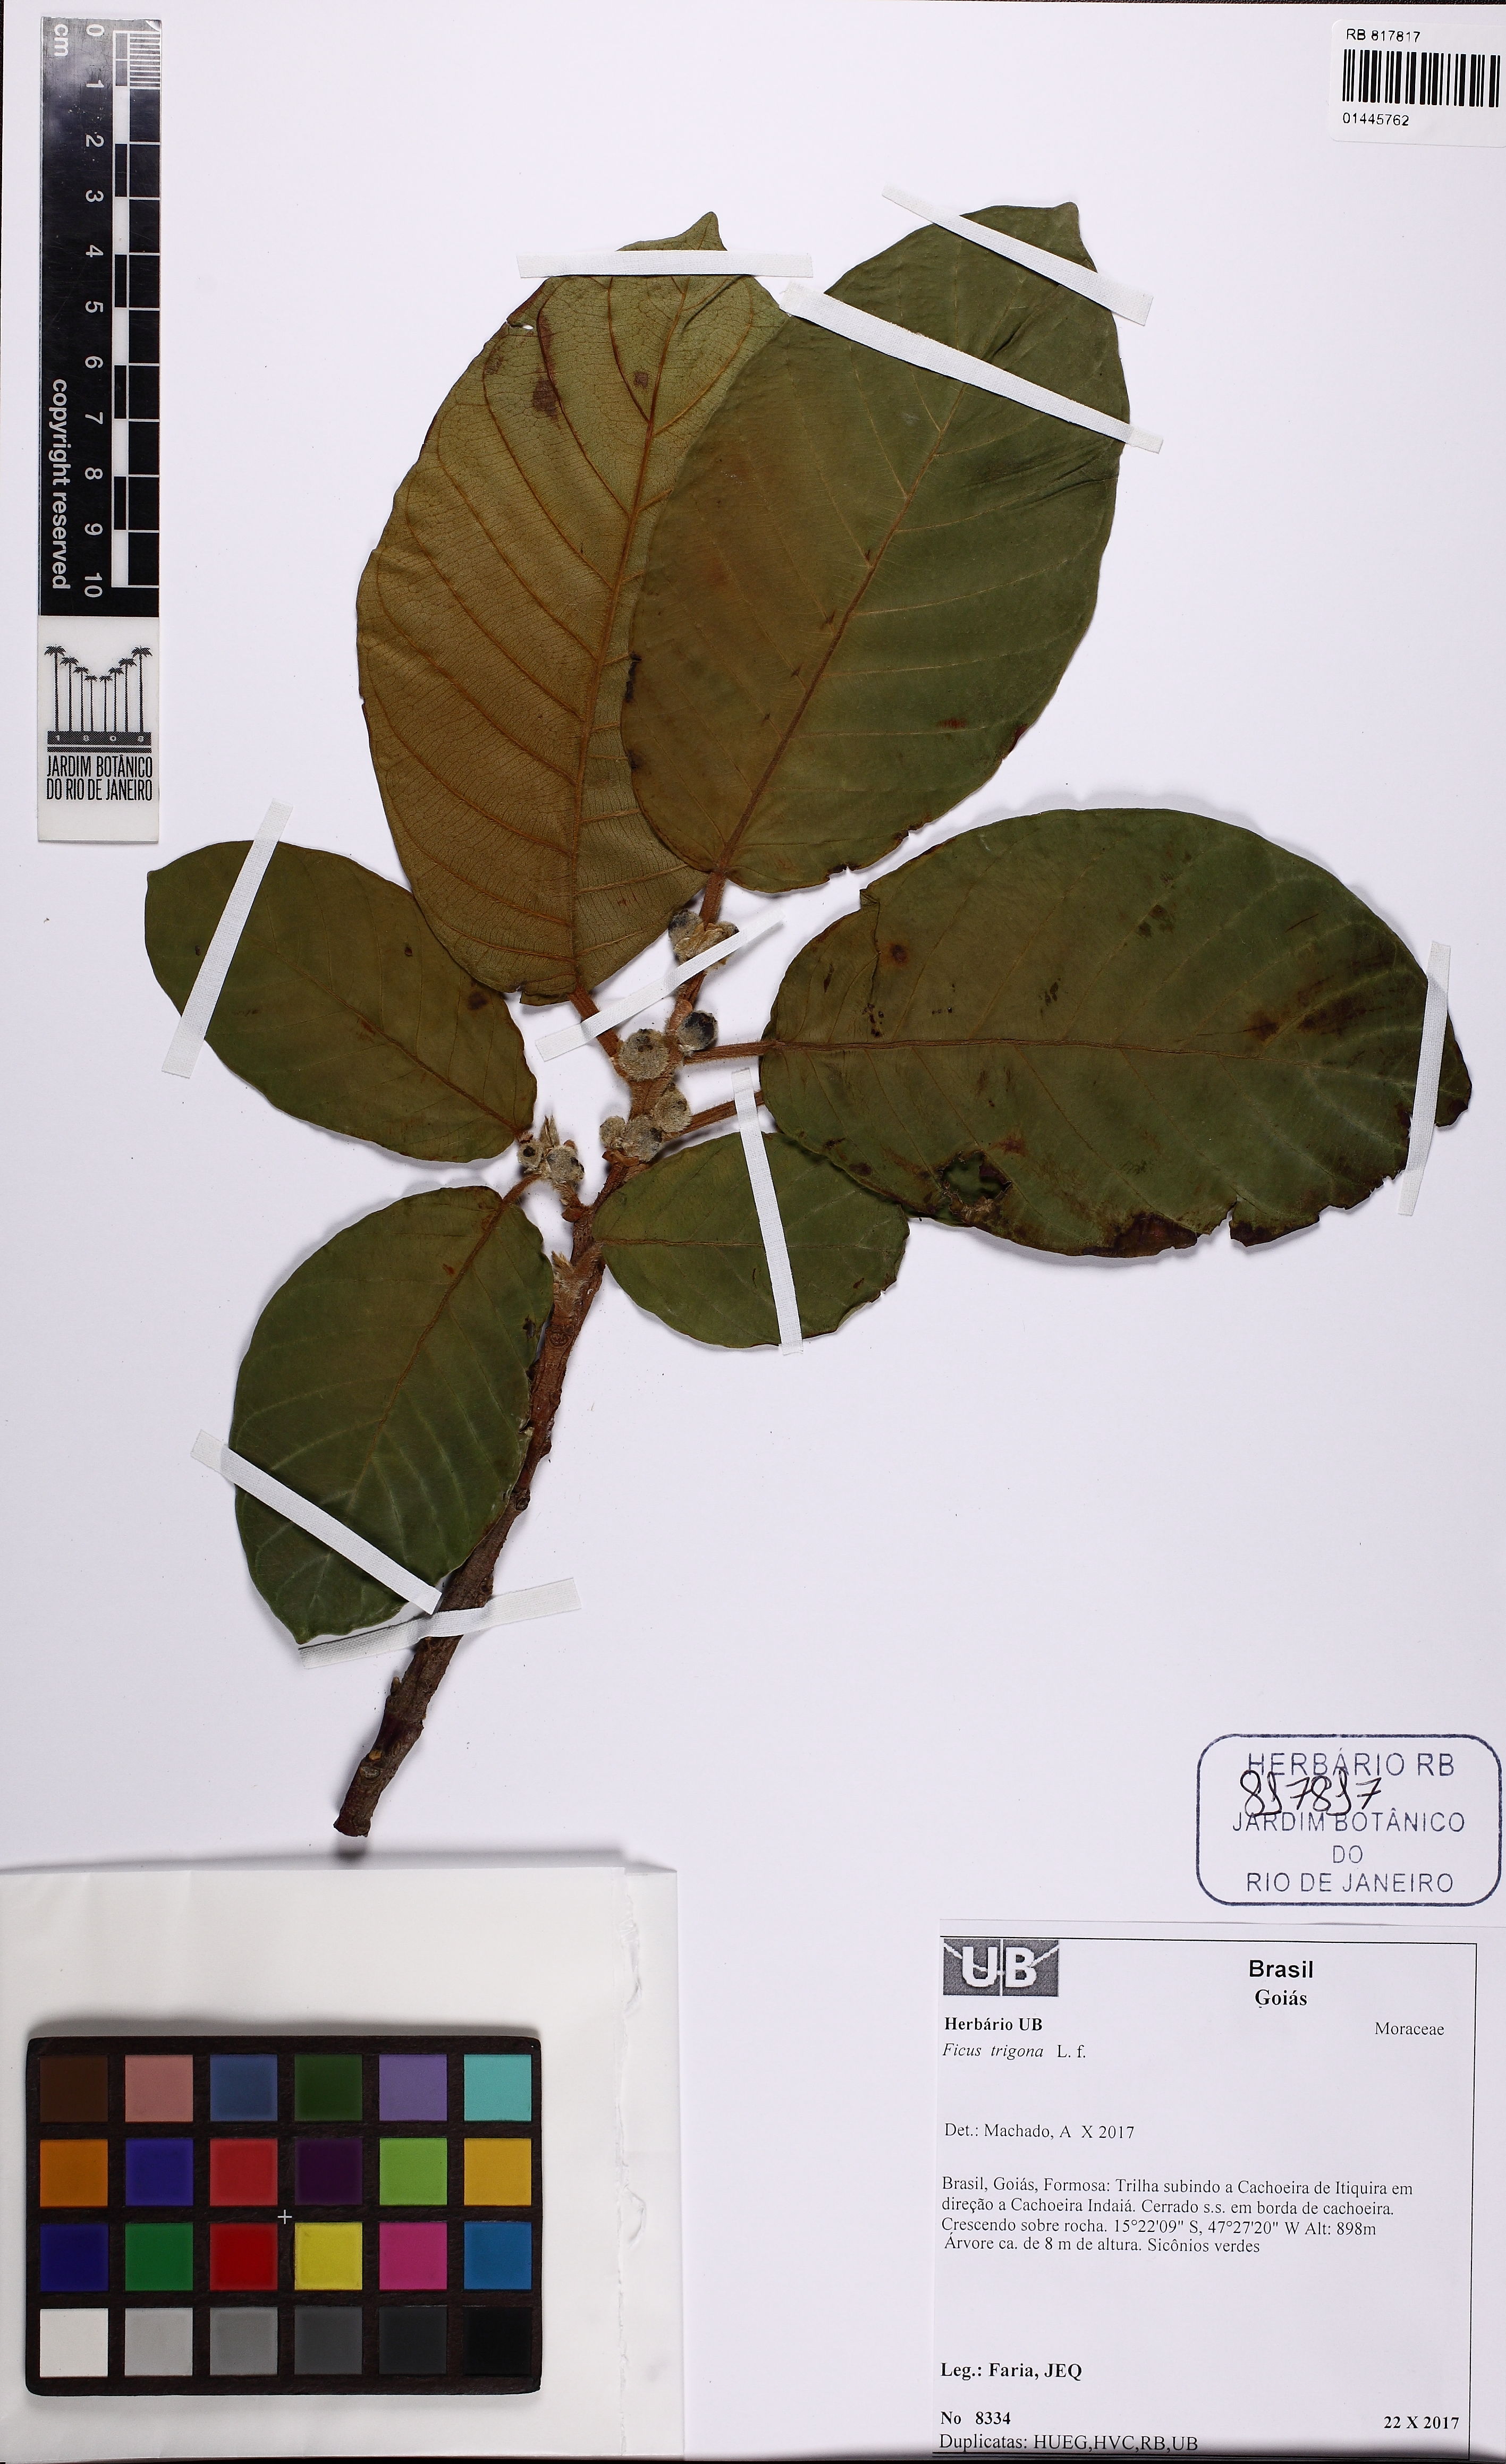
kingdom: Plantae
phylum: Tracheophyta
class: Magnoliopsida
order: Rosales
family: Moraceae
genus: Ficus
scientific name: Ficus trigona
